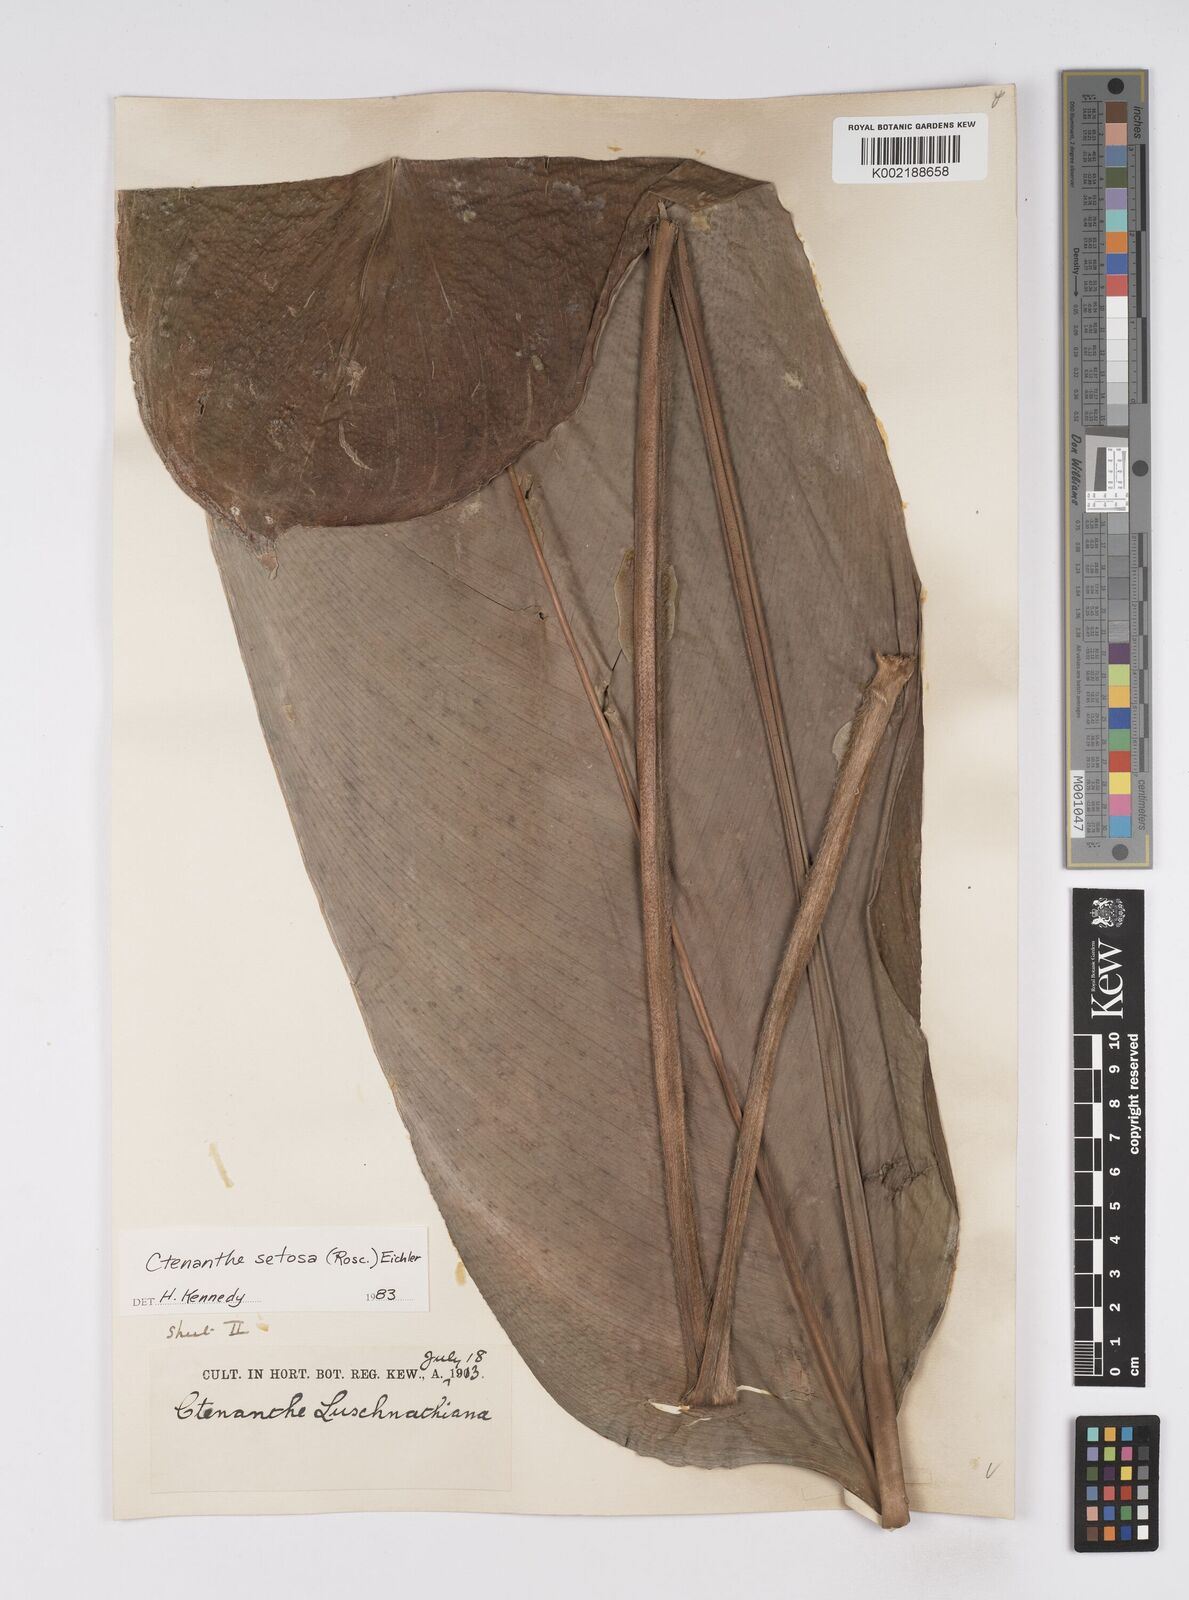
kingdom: Plantae
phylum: Tracheophyta
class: Liliopsida
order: Zingiberales
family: Marantaceae
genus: Ctenanthe
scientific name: Ctenanthe setosa
